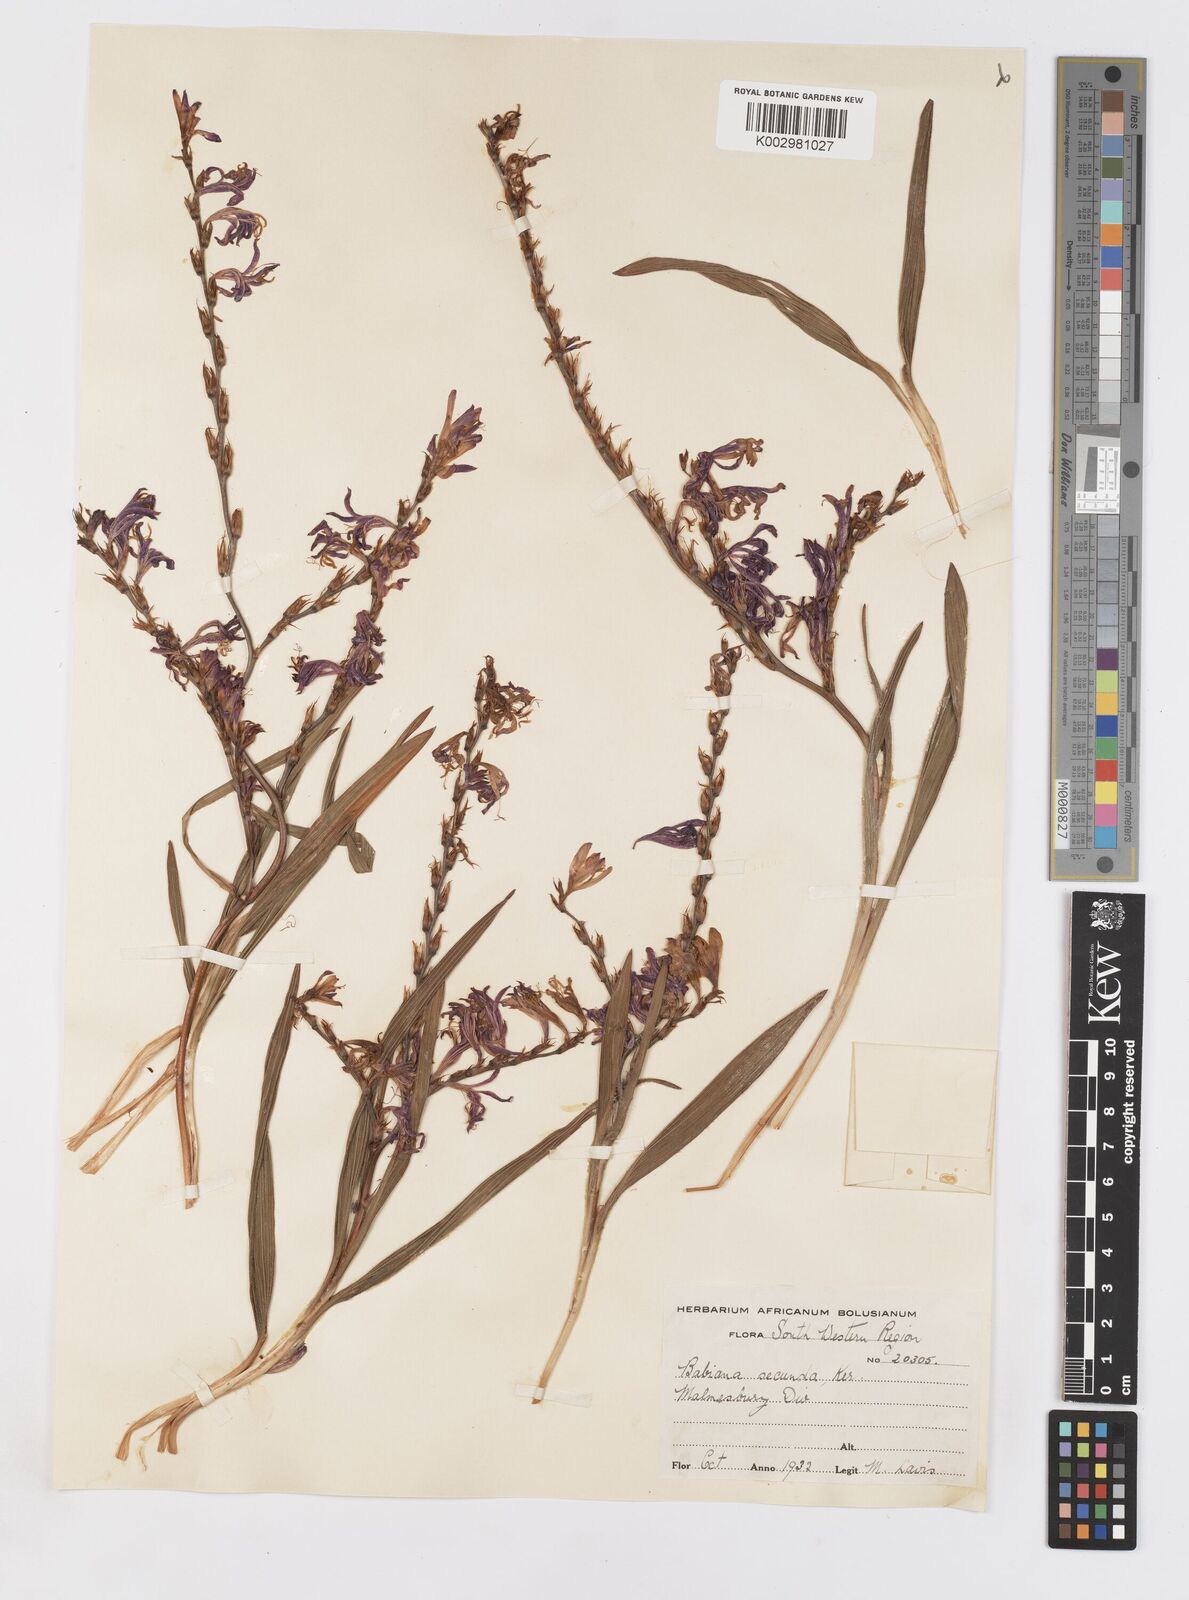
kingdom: Plantae
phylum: Tracheophyta
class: Liliopsida
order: Asparagales
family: Iridaceae
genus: Babiana
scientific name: Babiana secunda
